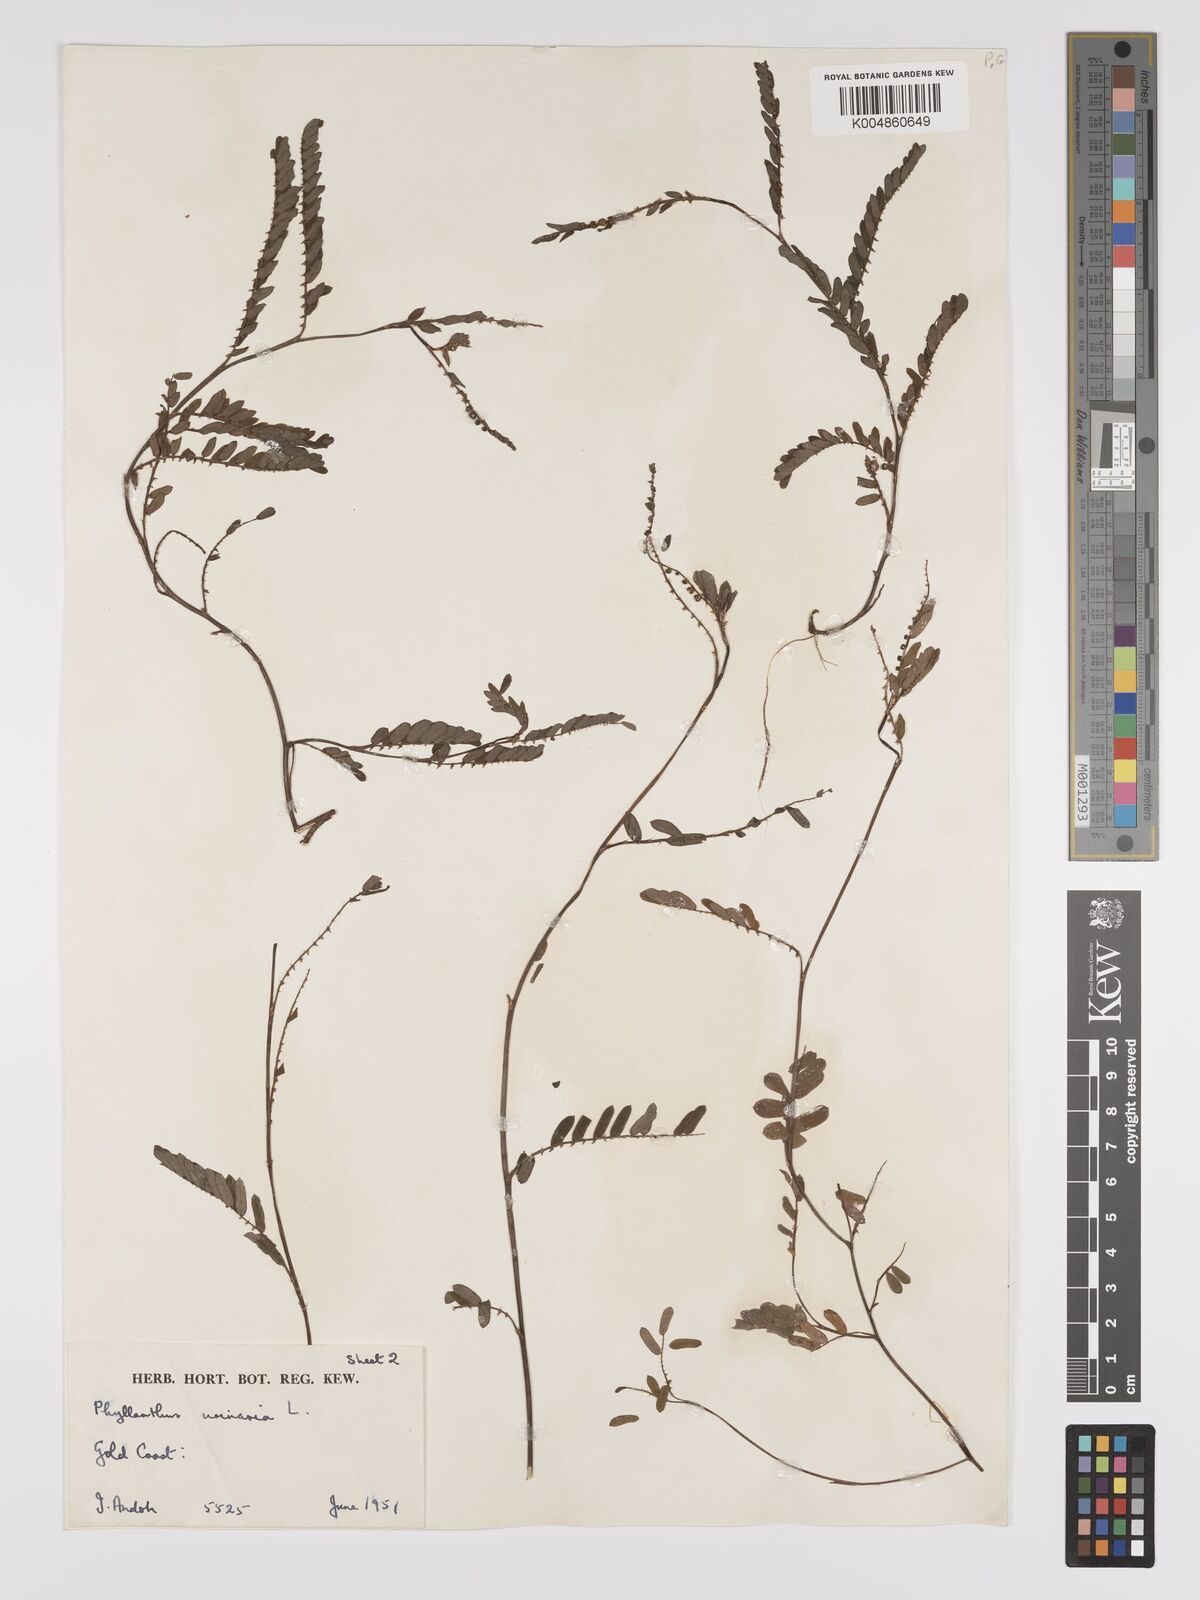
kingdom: Plantae
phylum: Tracheophyta
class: Magnoliopsida
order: Malpighiales
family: Phyllanthaceae
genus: Phyllanthus
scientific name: Phyllanthus urinaria
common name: Chamber bitter
